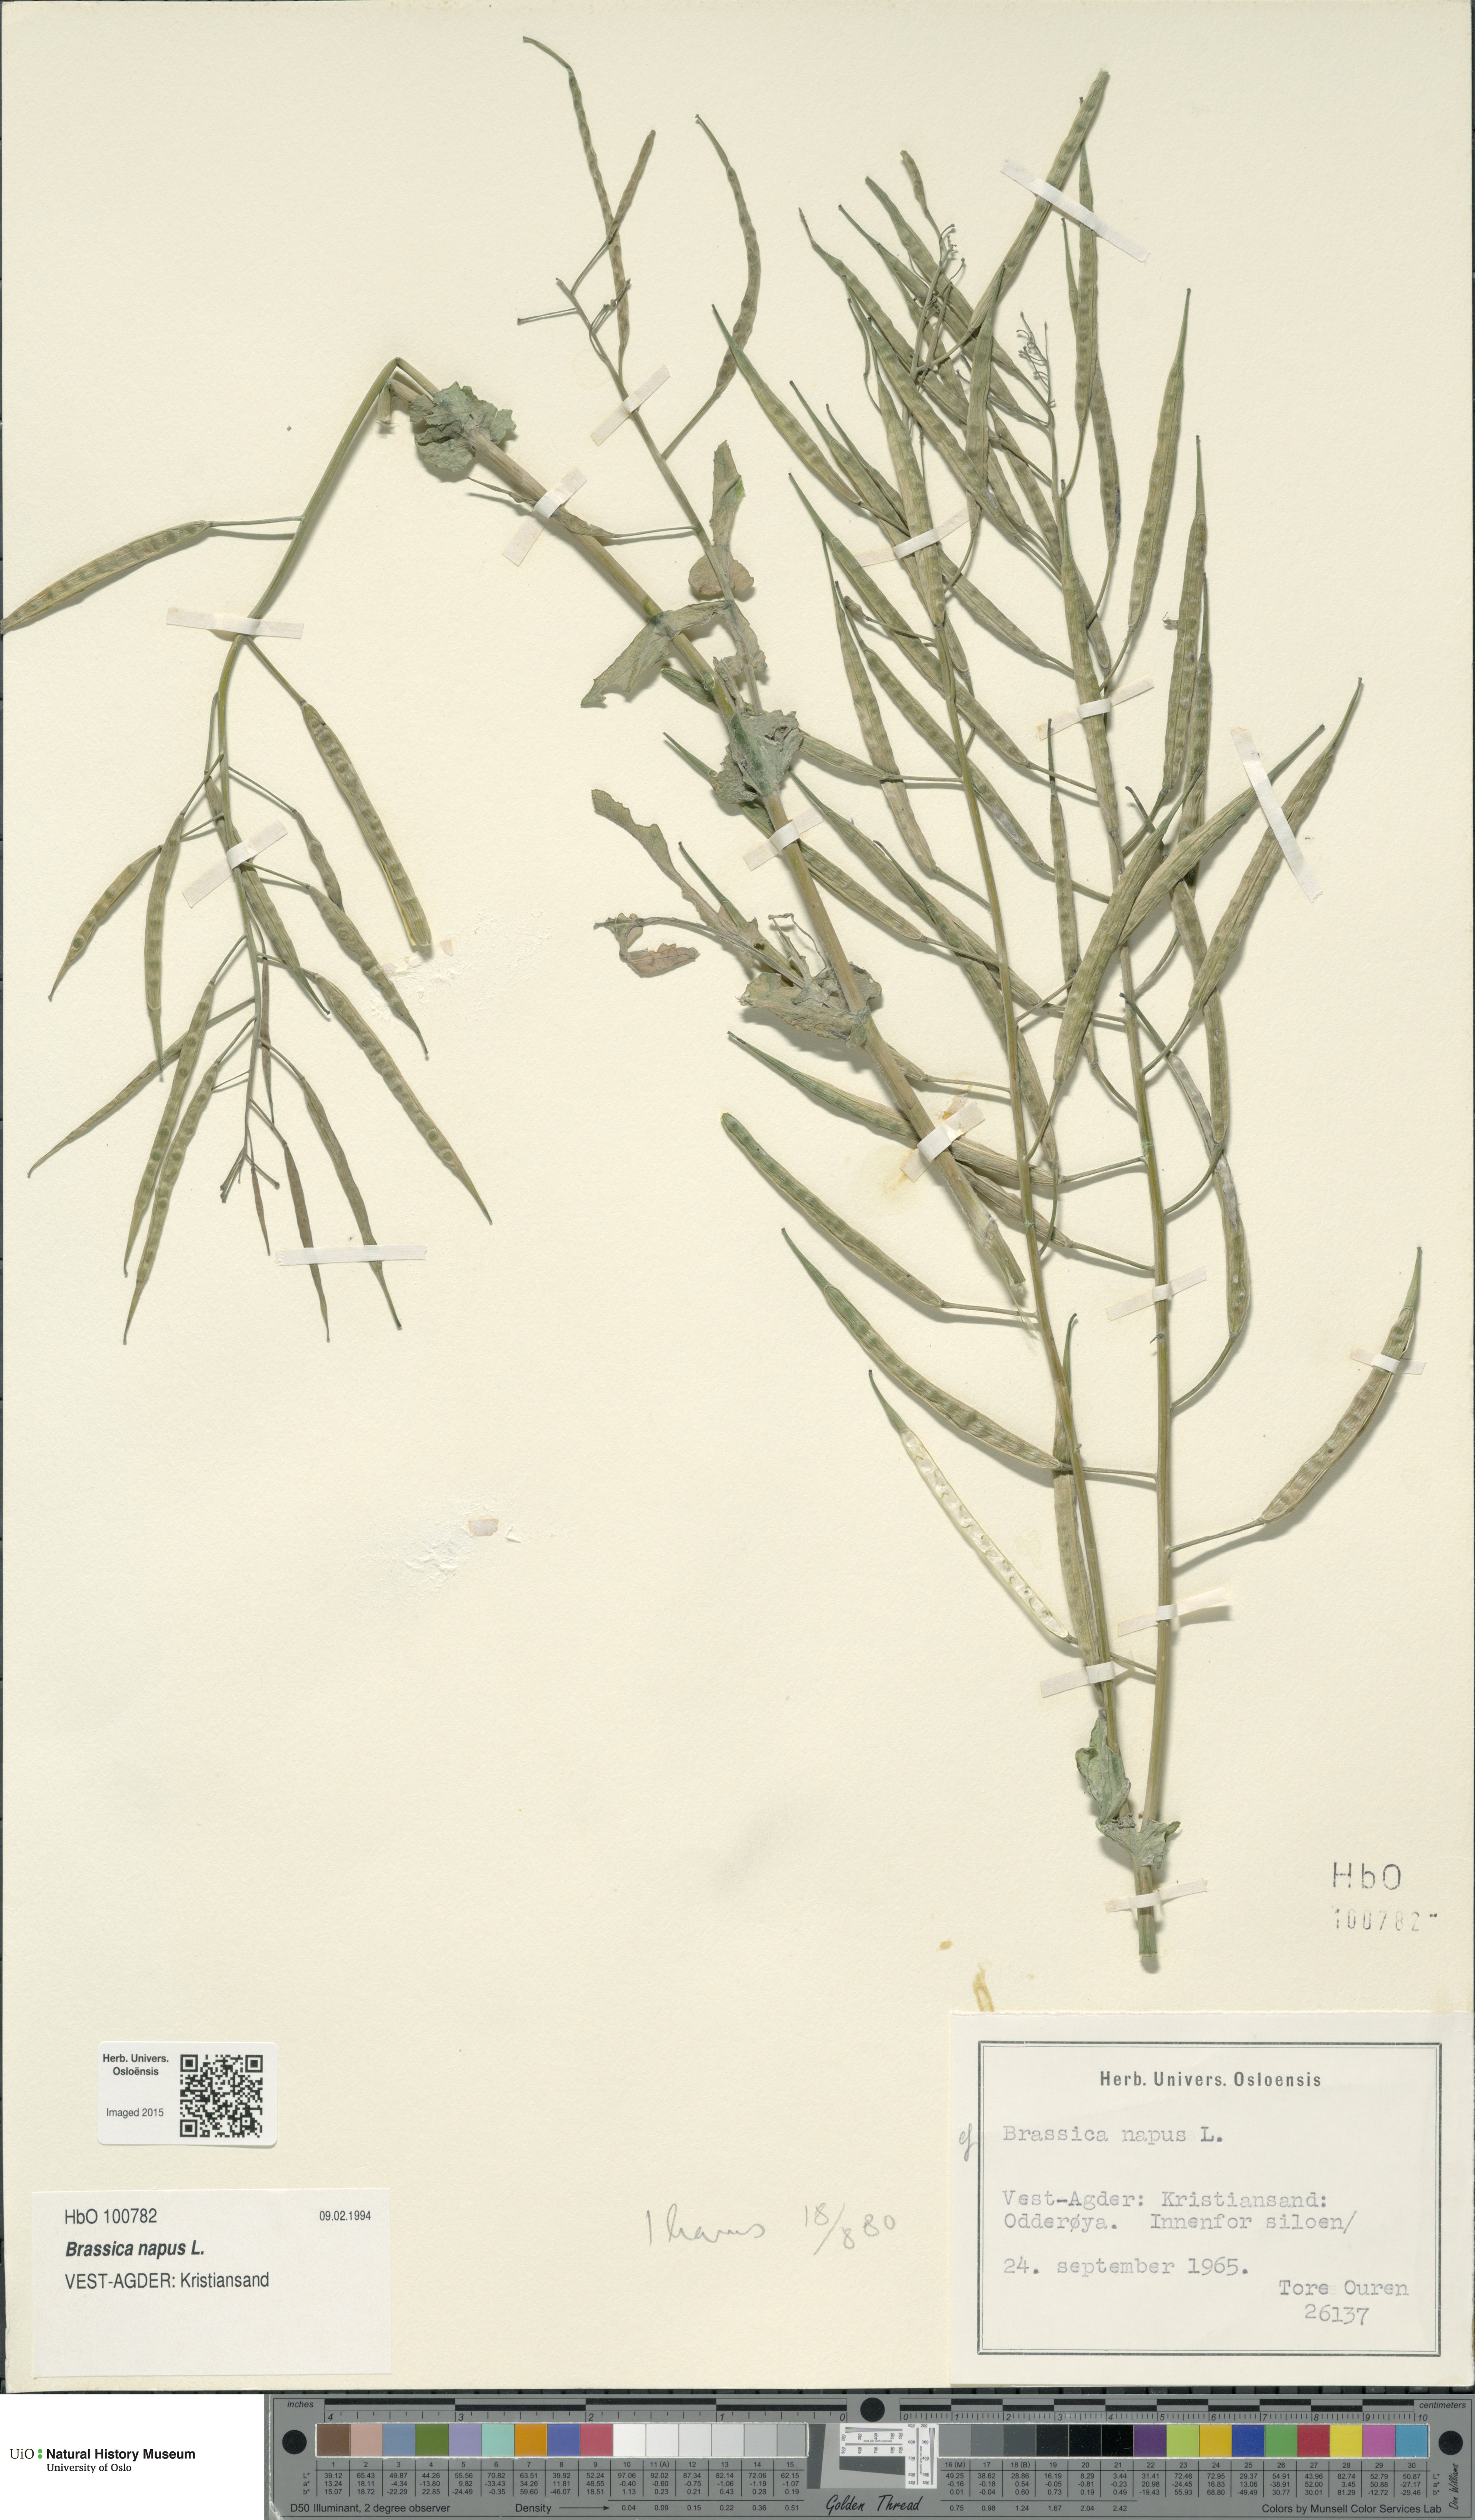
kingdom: Plantae
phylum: Tracheophyta
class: Magnoliopsida
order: Brassicales
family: Brassicaceae
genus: Brassica
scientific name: Brassica napus
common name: Rape
